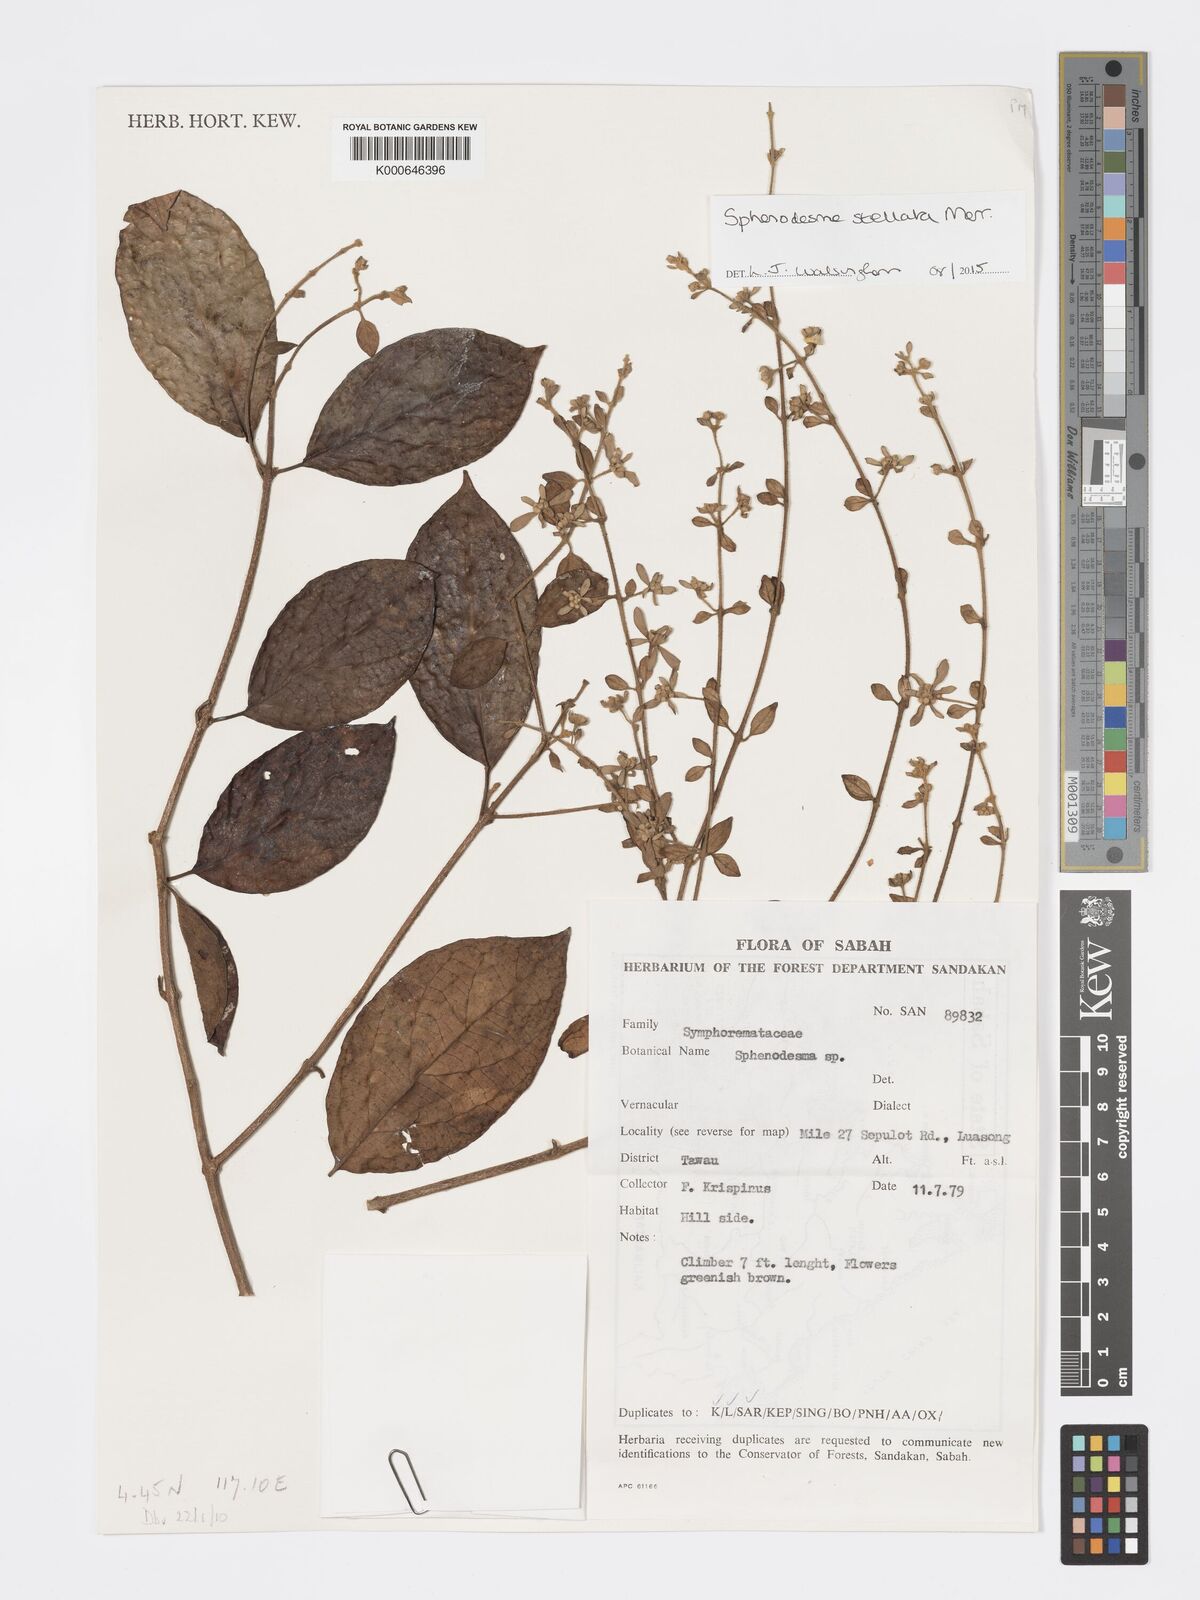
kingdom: Plantae
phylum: Tracheophyta
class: Magnoliopsida
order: Lamiales
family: Lamiaceae
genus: Sphenodesme
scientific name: Sphenodesme stellata
